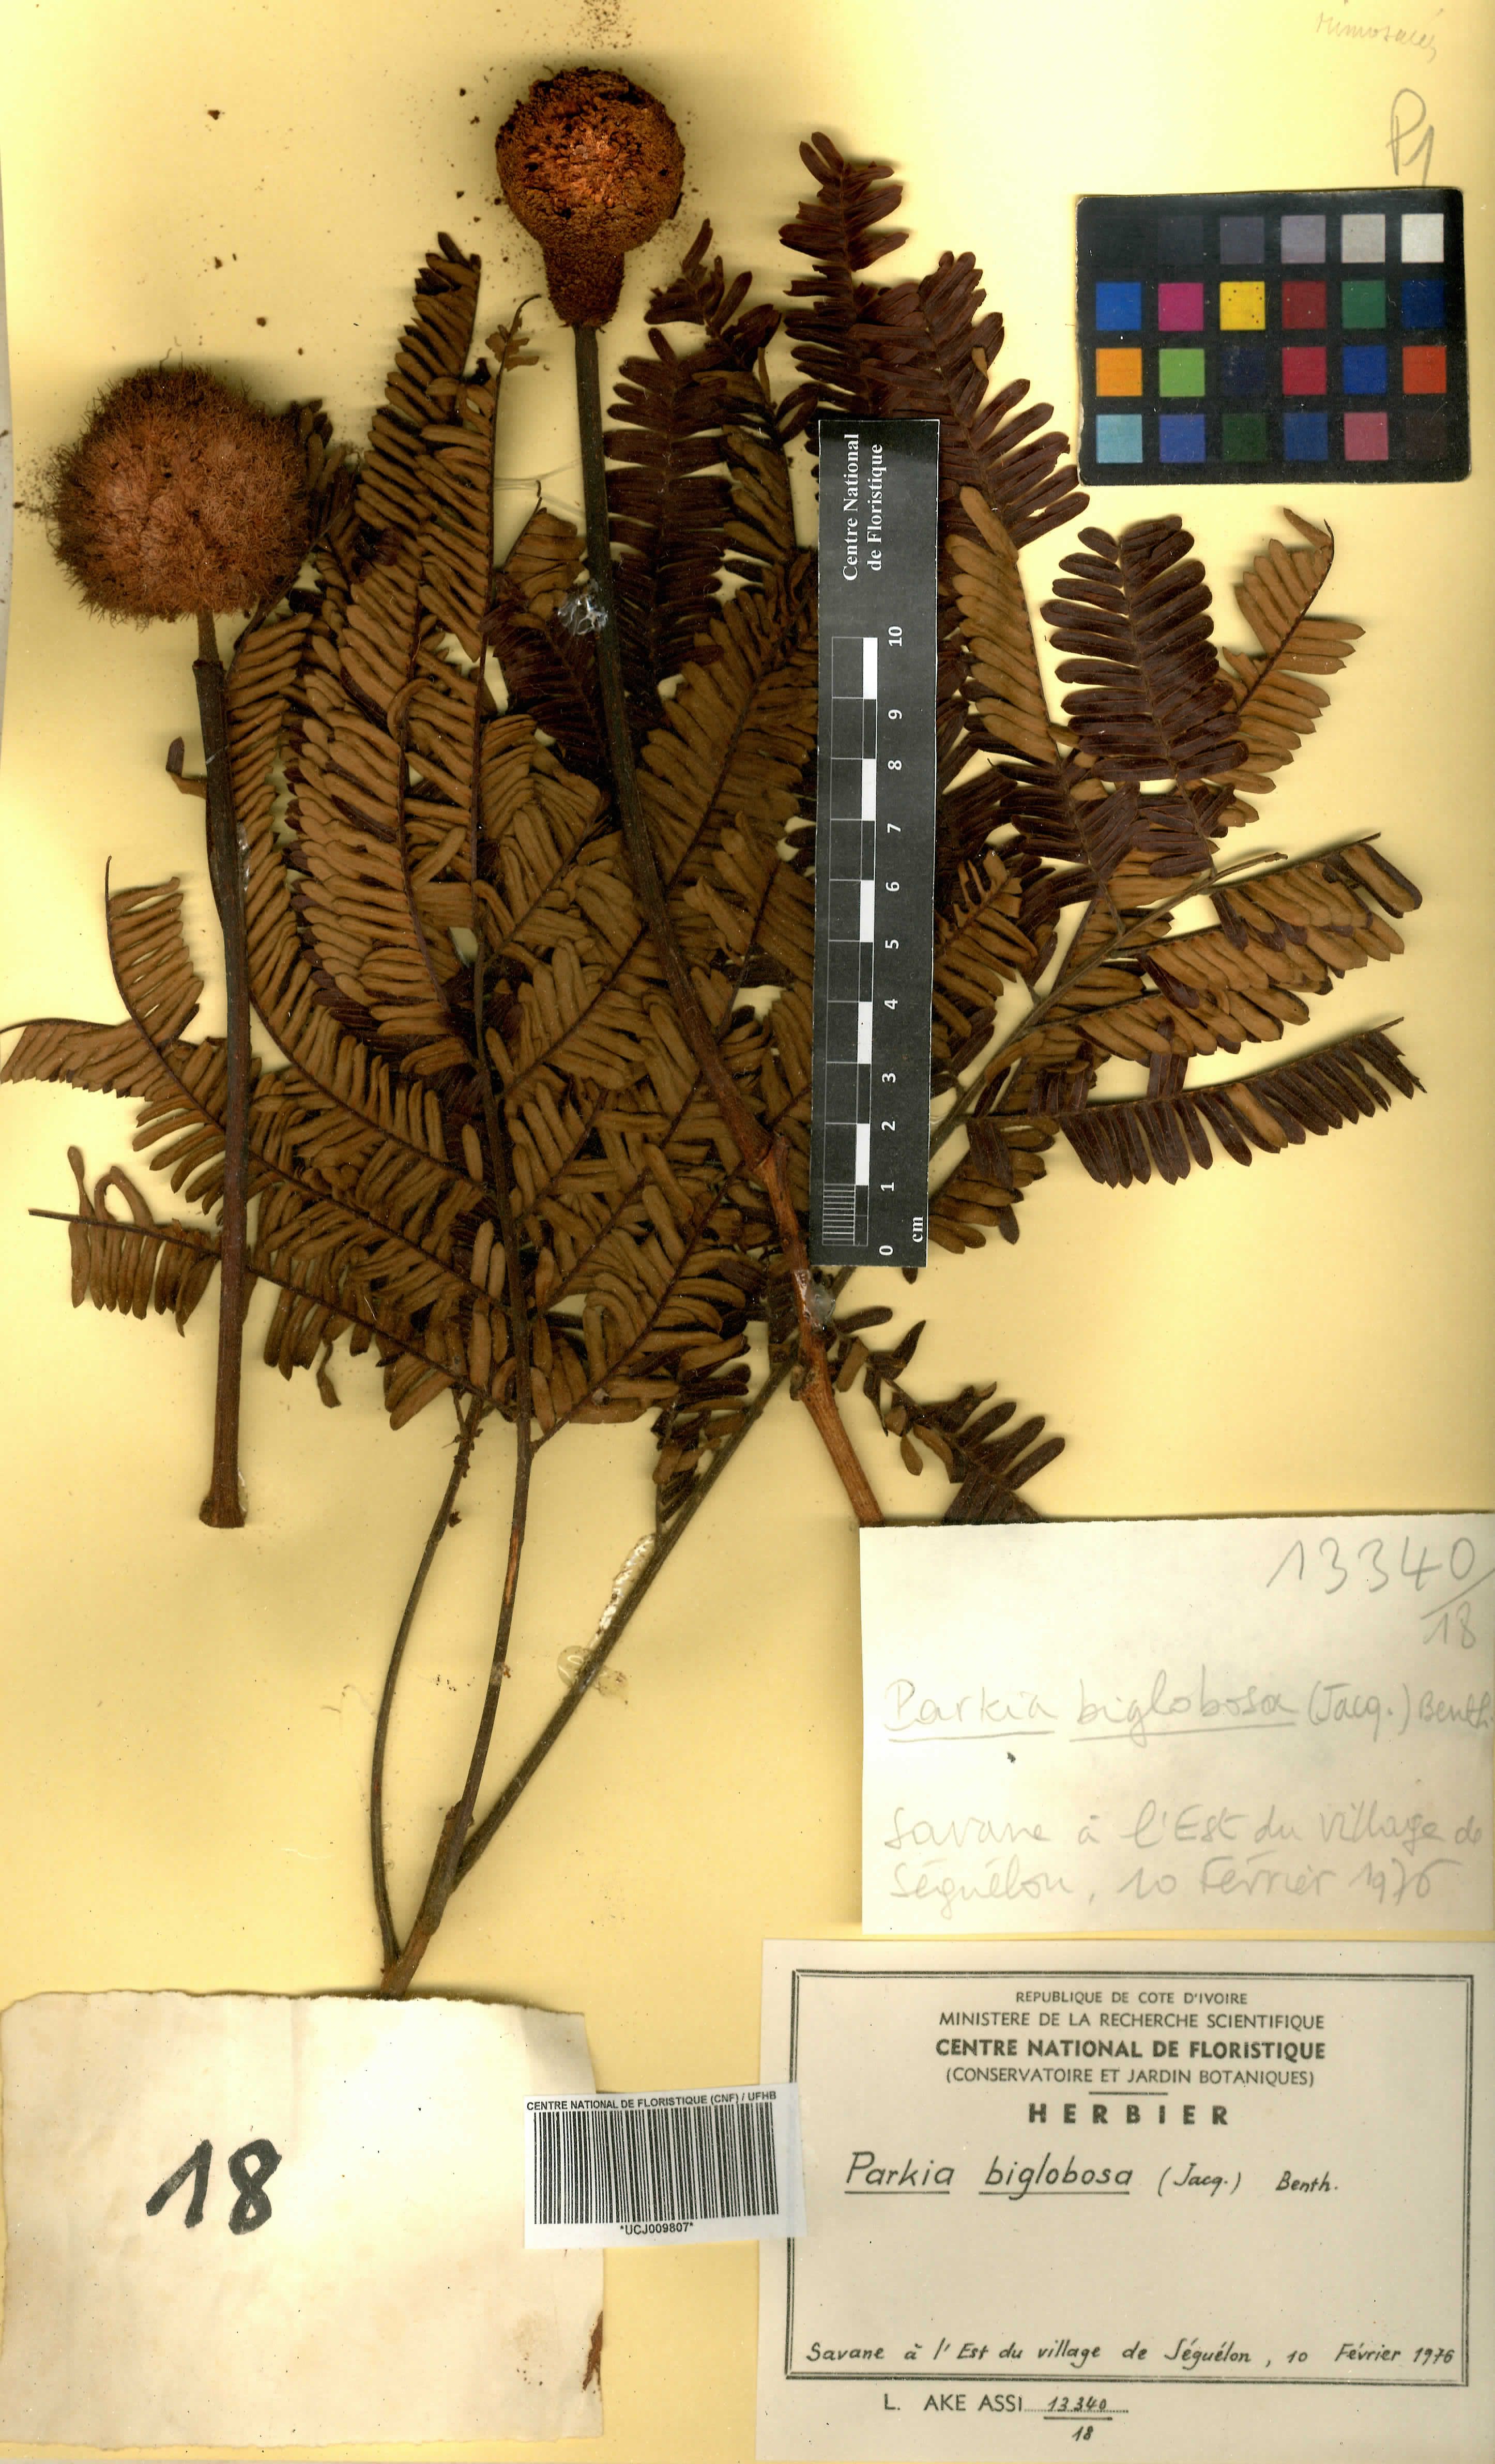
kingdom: Plantae
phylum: Tracheophyta
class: Magnoliopsida
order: Fabales
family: Fabaceae
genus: Parkia
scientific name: Parkia timoriana
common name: Legume
